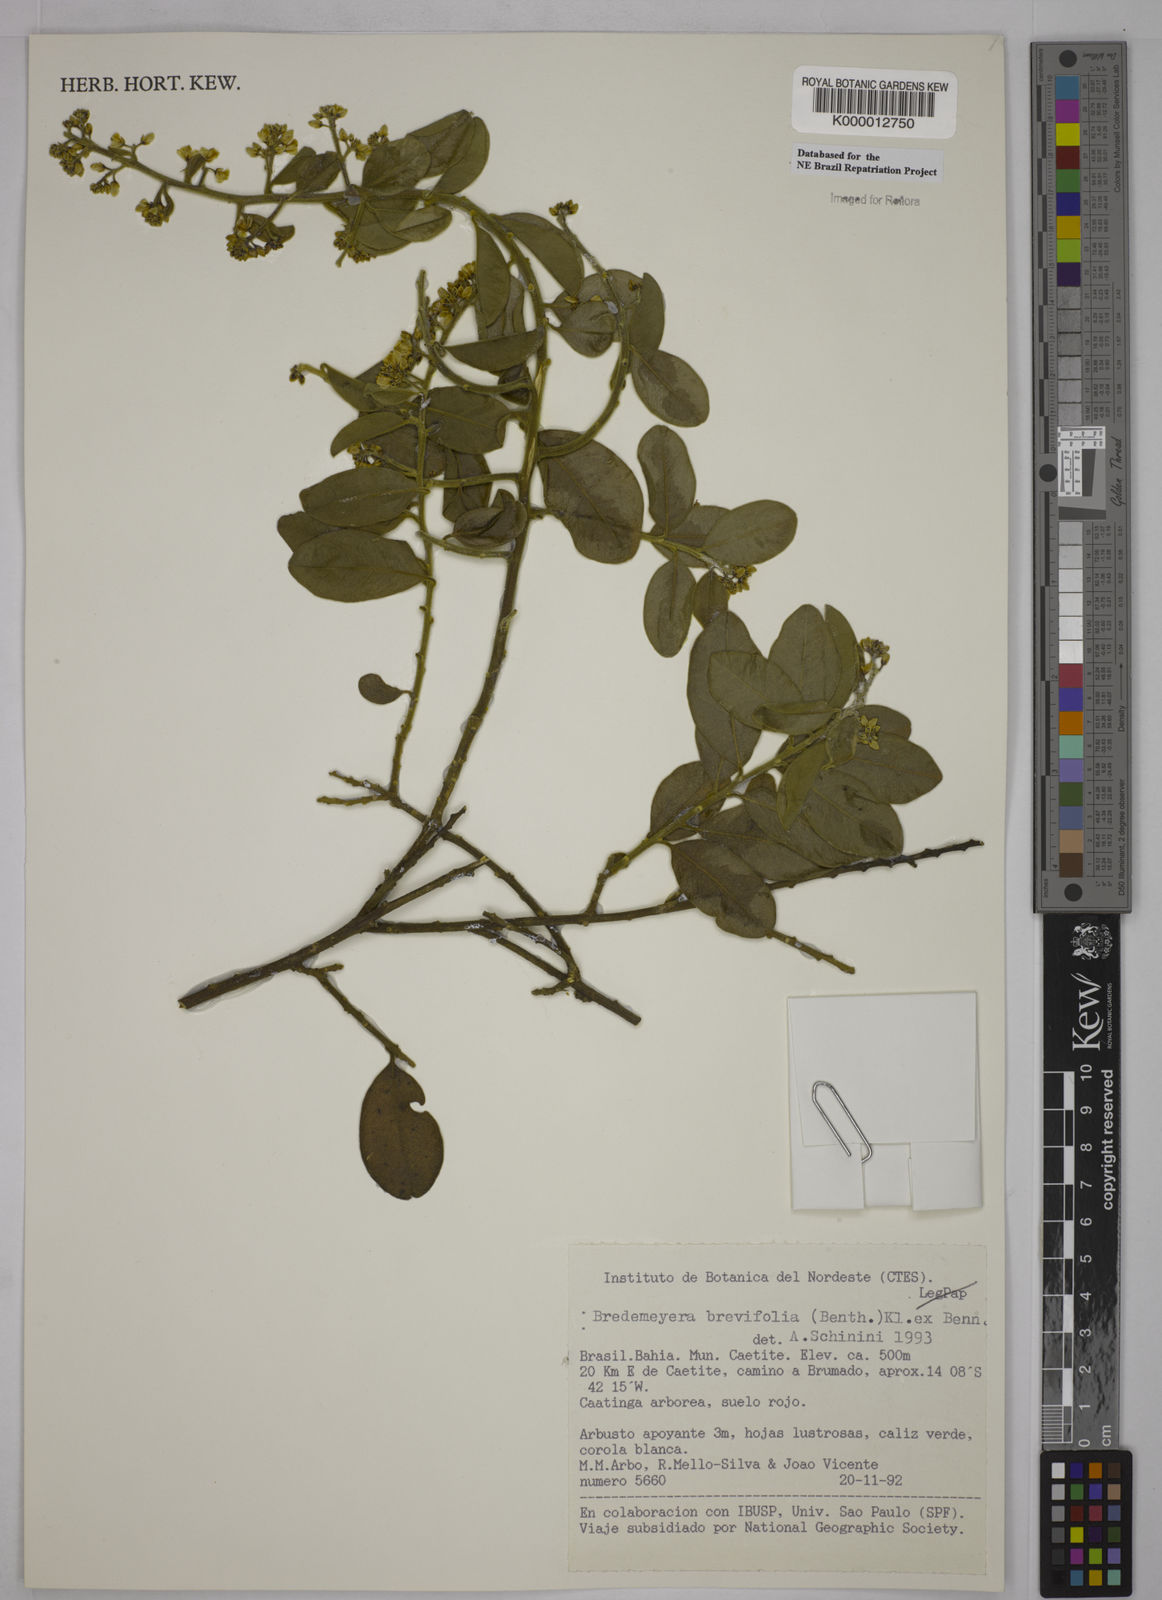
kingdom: Plantae
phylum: Tracheophyta
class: Magnoliopsida
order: Fabales
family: Polygalaceae
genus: Bredemeyera
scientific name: Bredemeyera brevifolia
